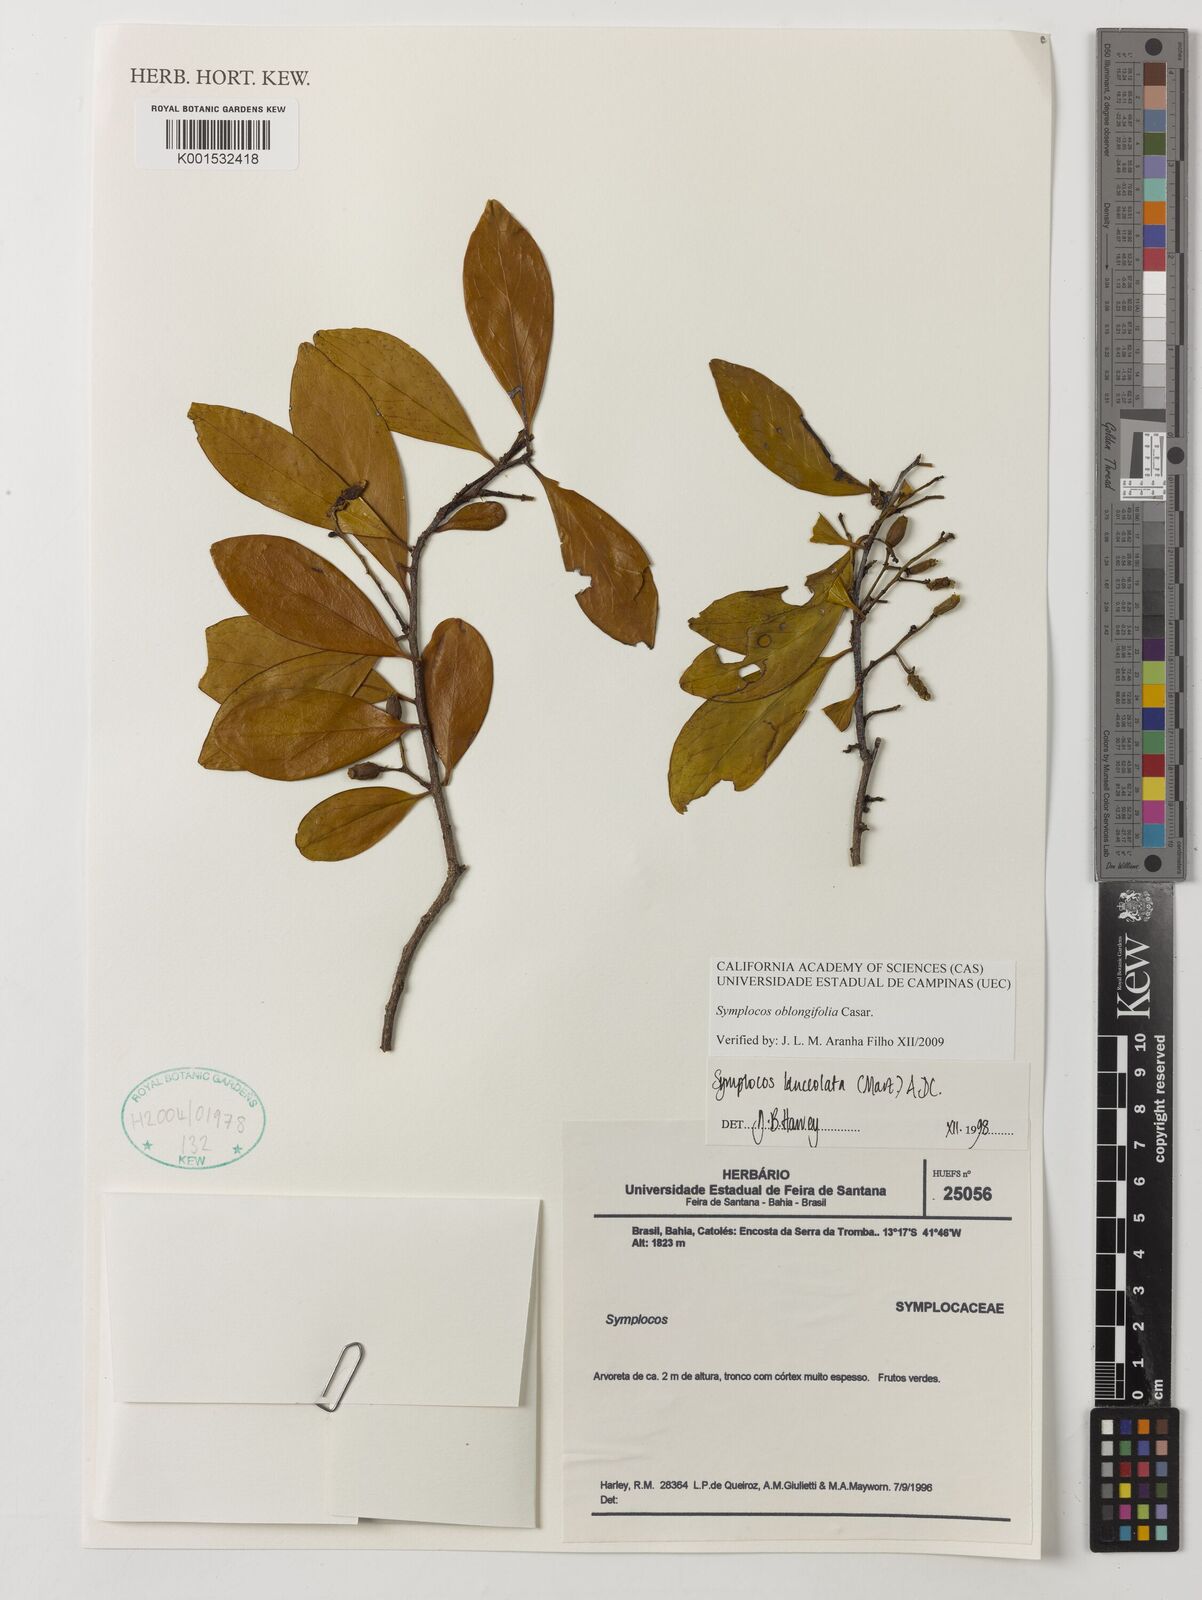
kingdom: Plantae
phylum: Tracheophyta
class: Magnoliopsida
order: Ericales
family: Symplocaceae
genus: Symplocos
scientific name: Symplocos oblongifolia
